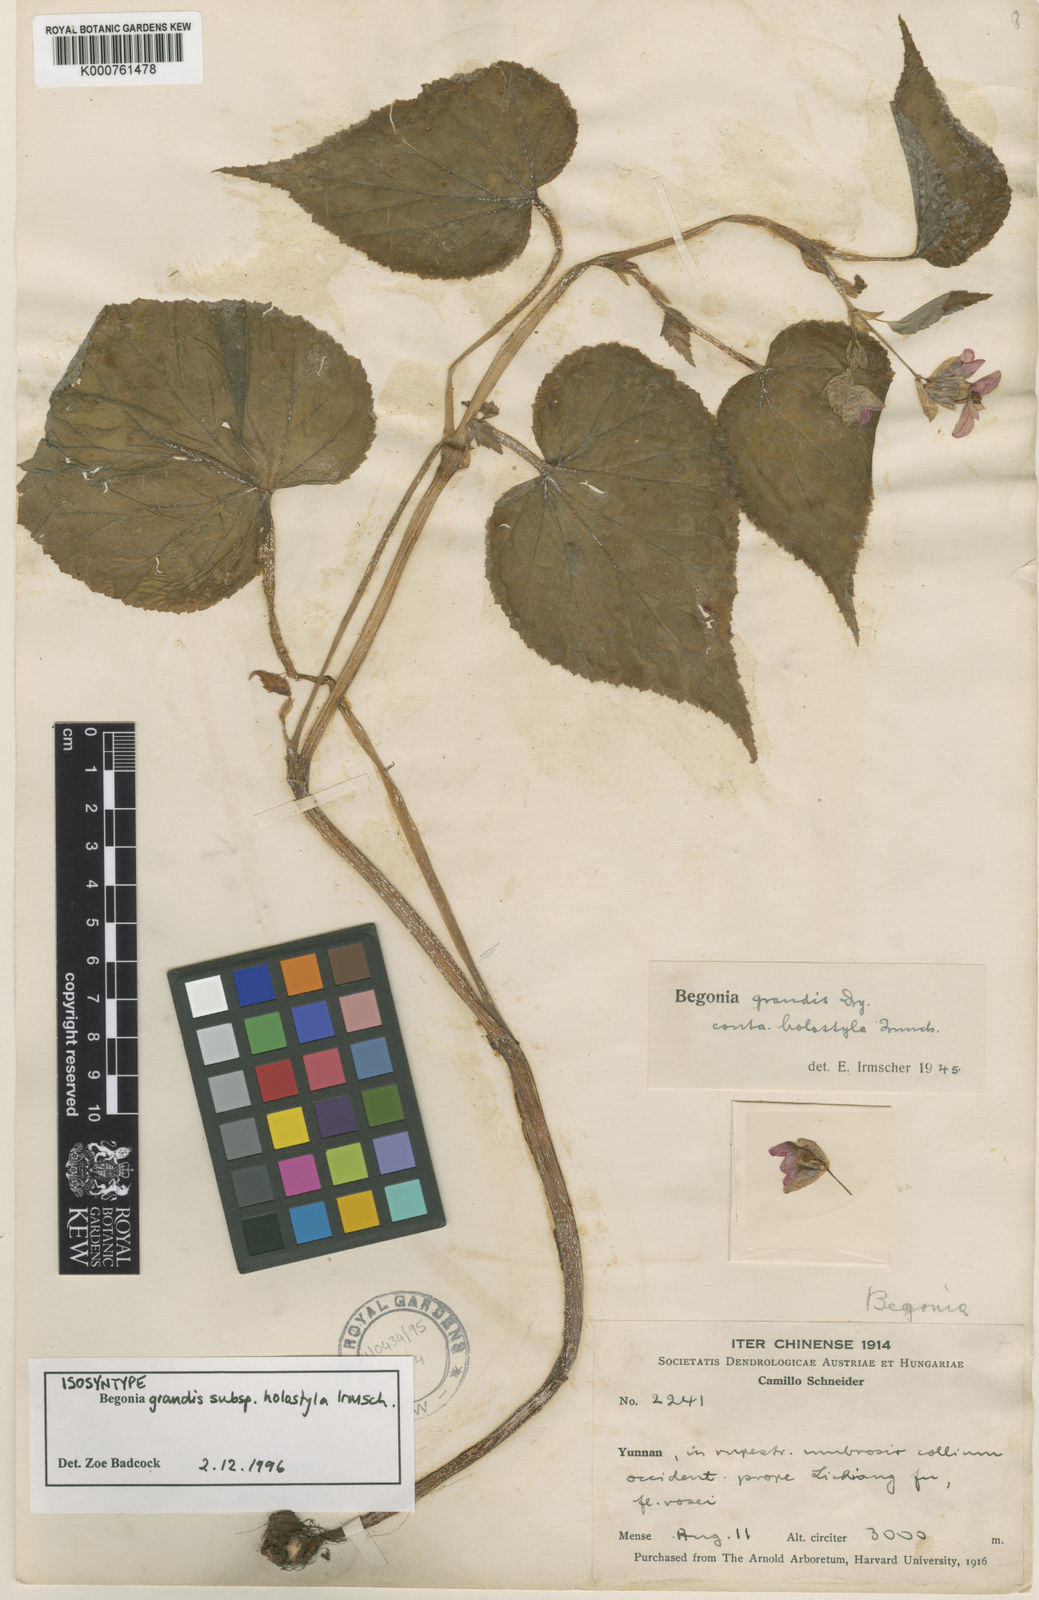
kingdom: Plantae
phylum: Tracheophyta
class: Magnoliopsida
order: Cucurbitales
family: Begoniaceae
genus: Begonia
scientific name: Begonia grandis
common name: Hardy begonia
